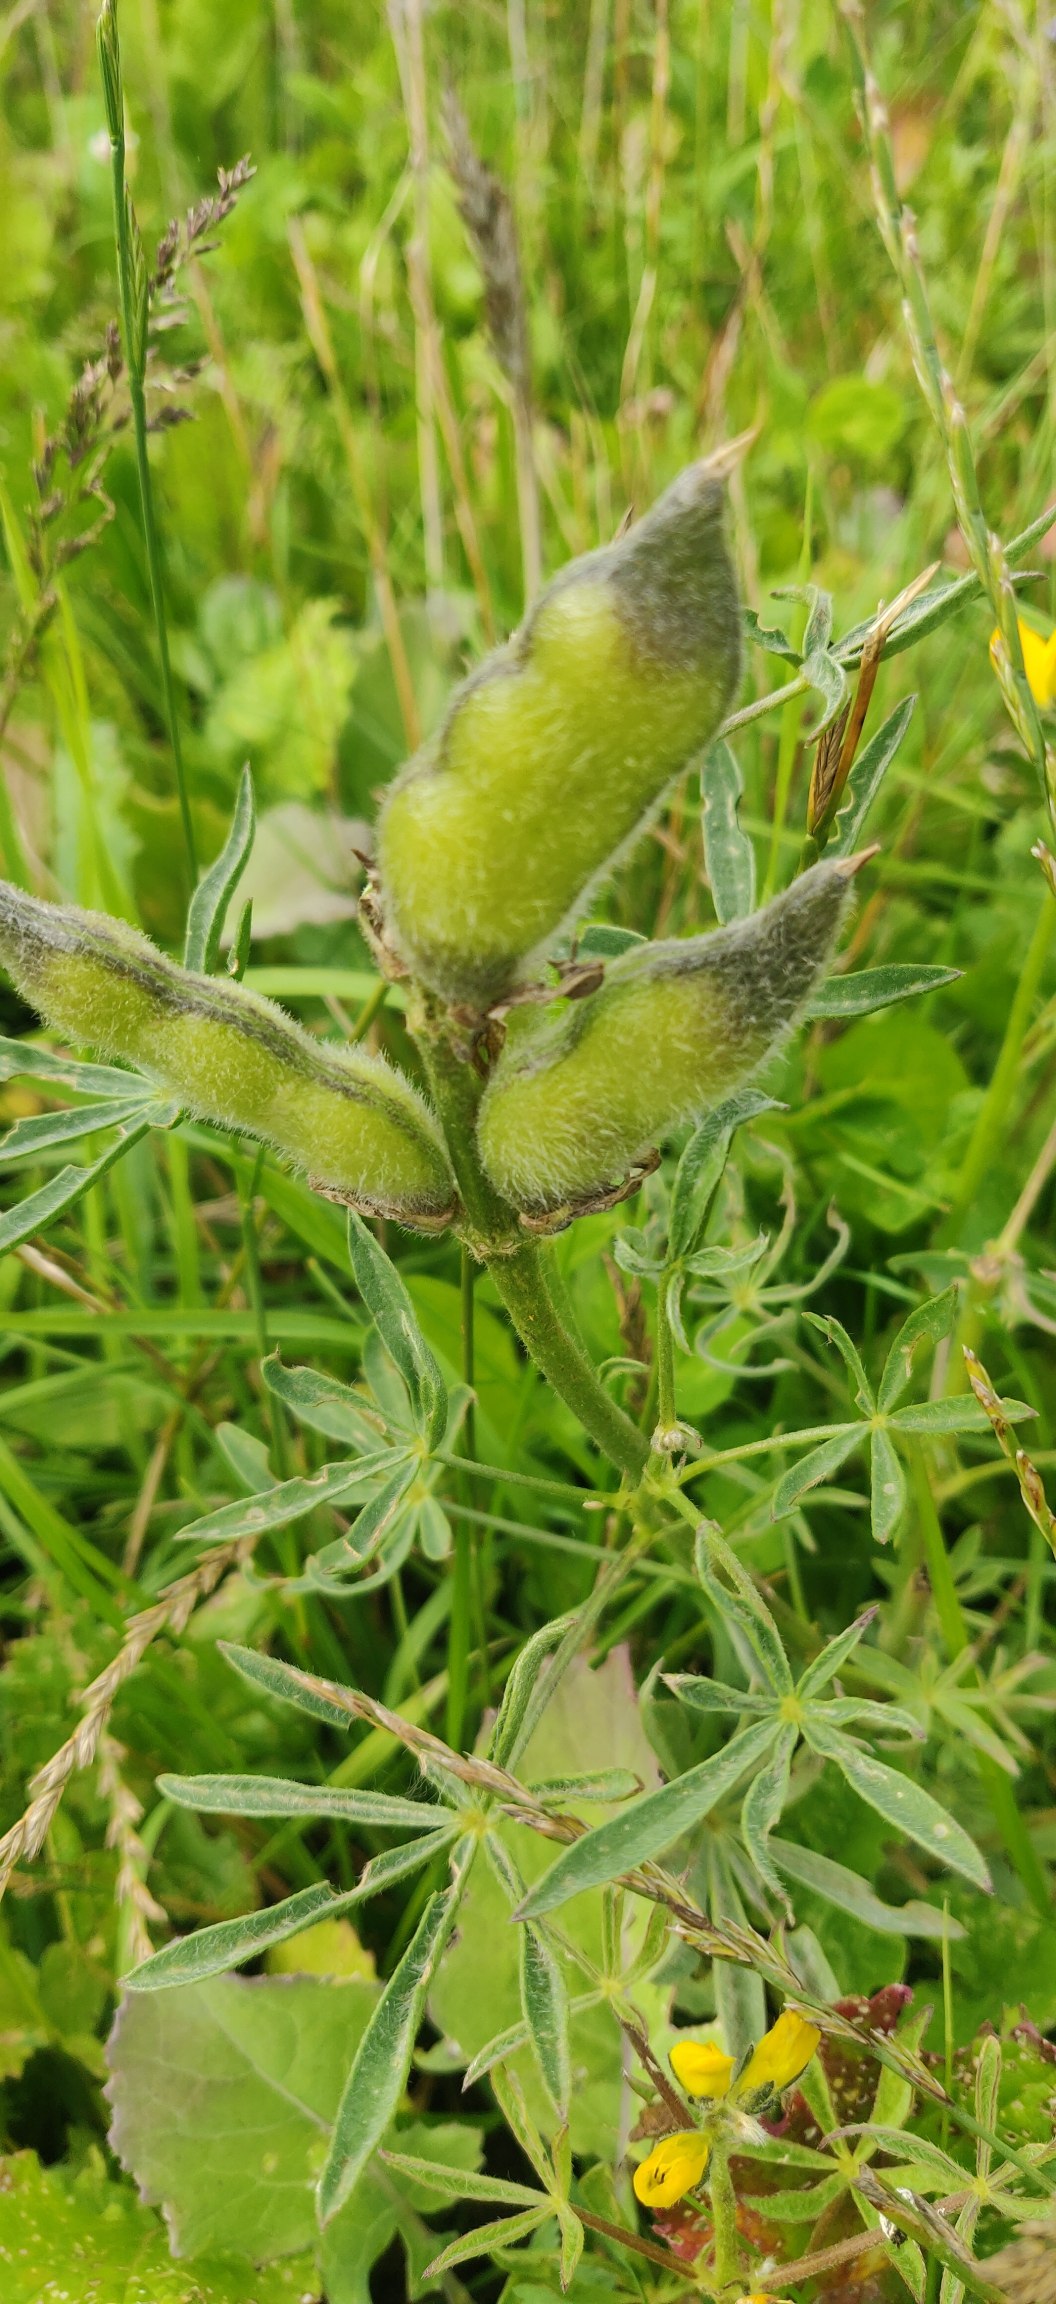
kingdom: Plantae
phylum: Tracheophyta
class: Magnoliopsida
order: Fabales
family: Fabaceae
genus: Lupinus
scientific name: Lupinus polyphyllus
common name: Mangebladet lupin
